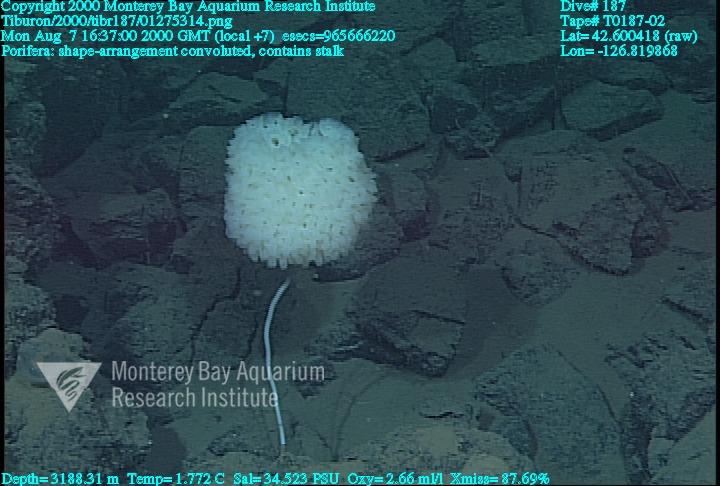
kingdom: Animalia
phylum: Porifera
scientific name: Porifera
